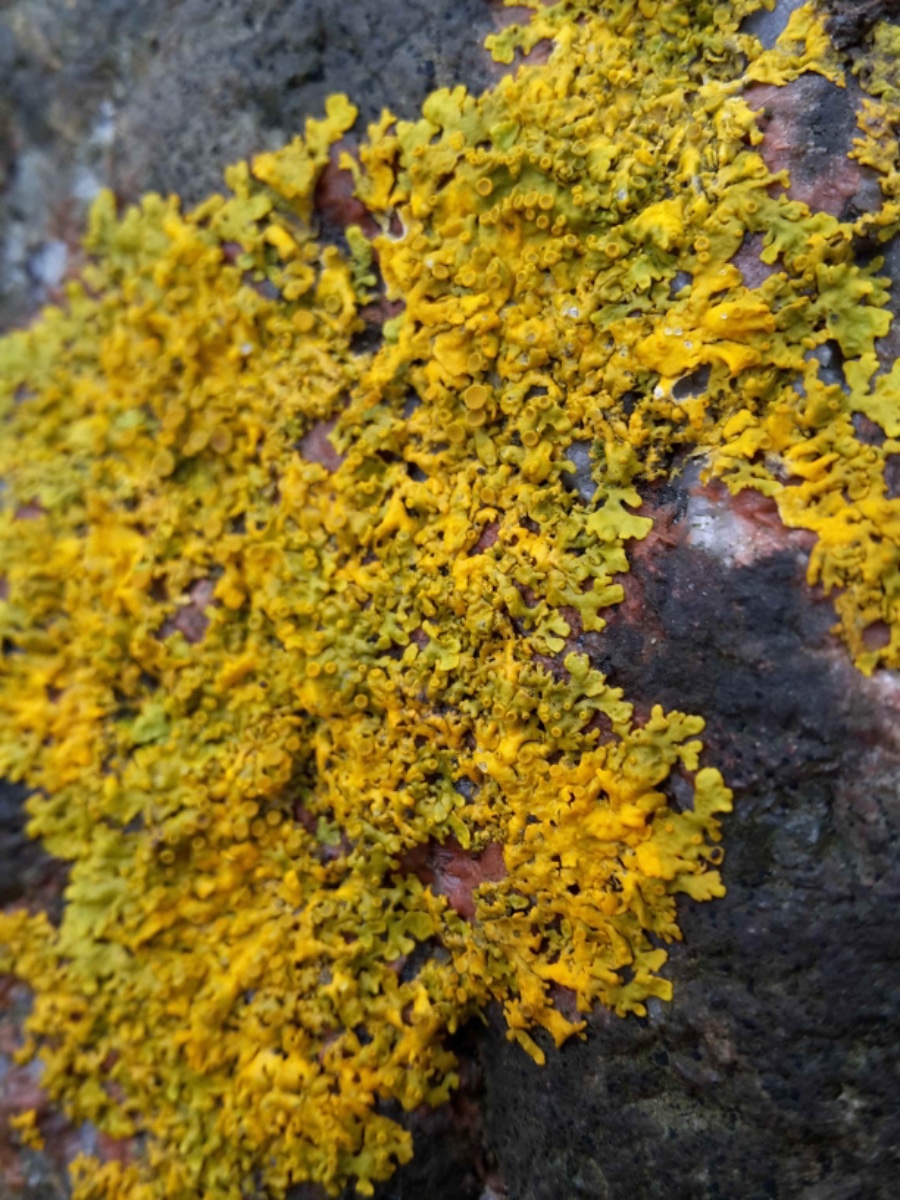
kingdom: Fungi
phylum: Ascomycota
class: Lecanoromycetes
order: Teloschistales
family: Teloschistaceae
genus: Xanthoria
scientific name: Xanthoria parietina
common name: almindelig væggelav
